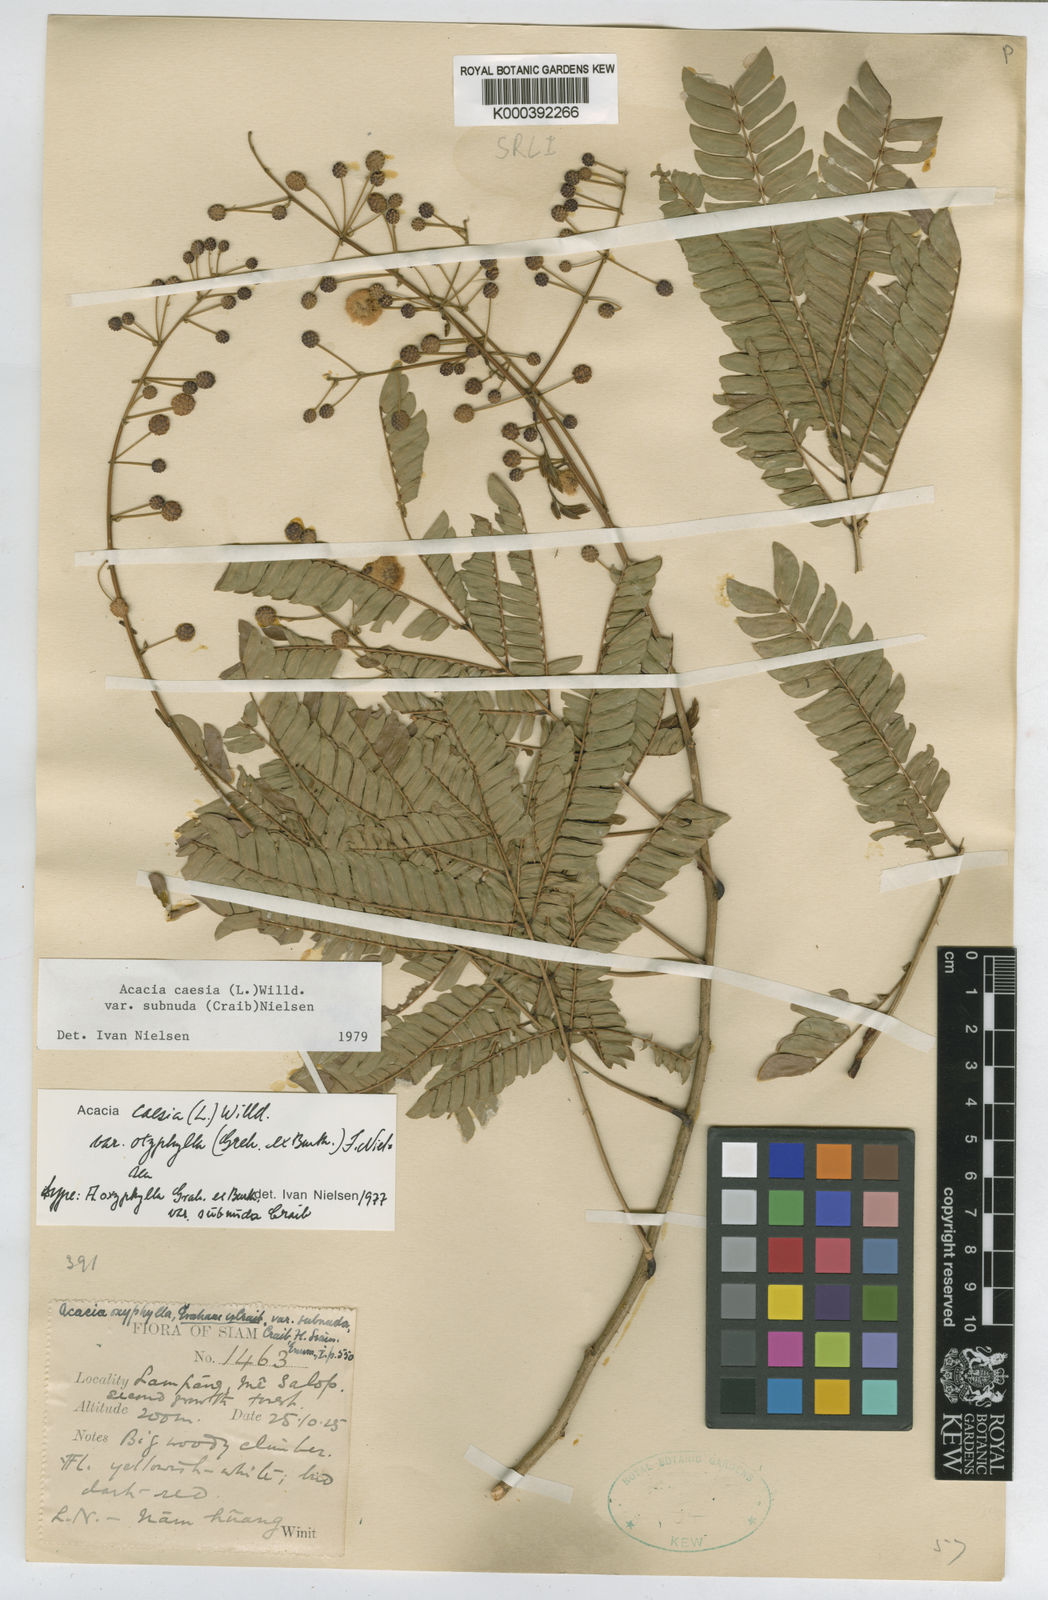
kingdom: Plantae
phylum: Tracheophyta
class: Magnoliopsida
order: Fabales
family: Fabaceae
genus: Senegalia
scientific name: Senegalia caesia
